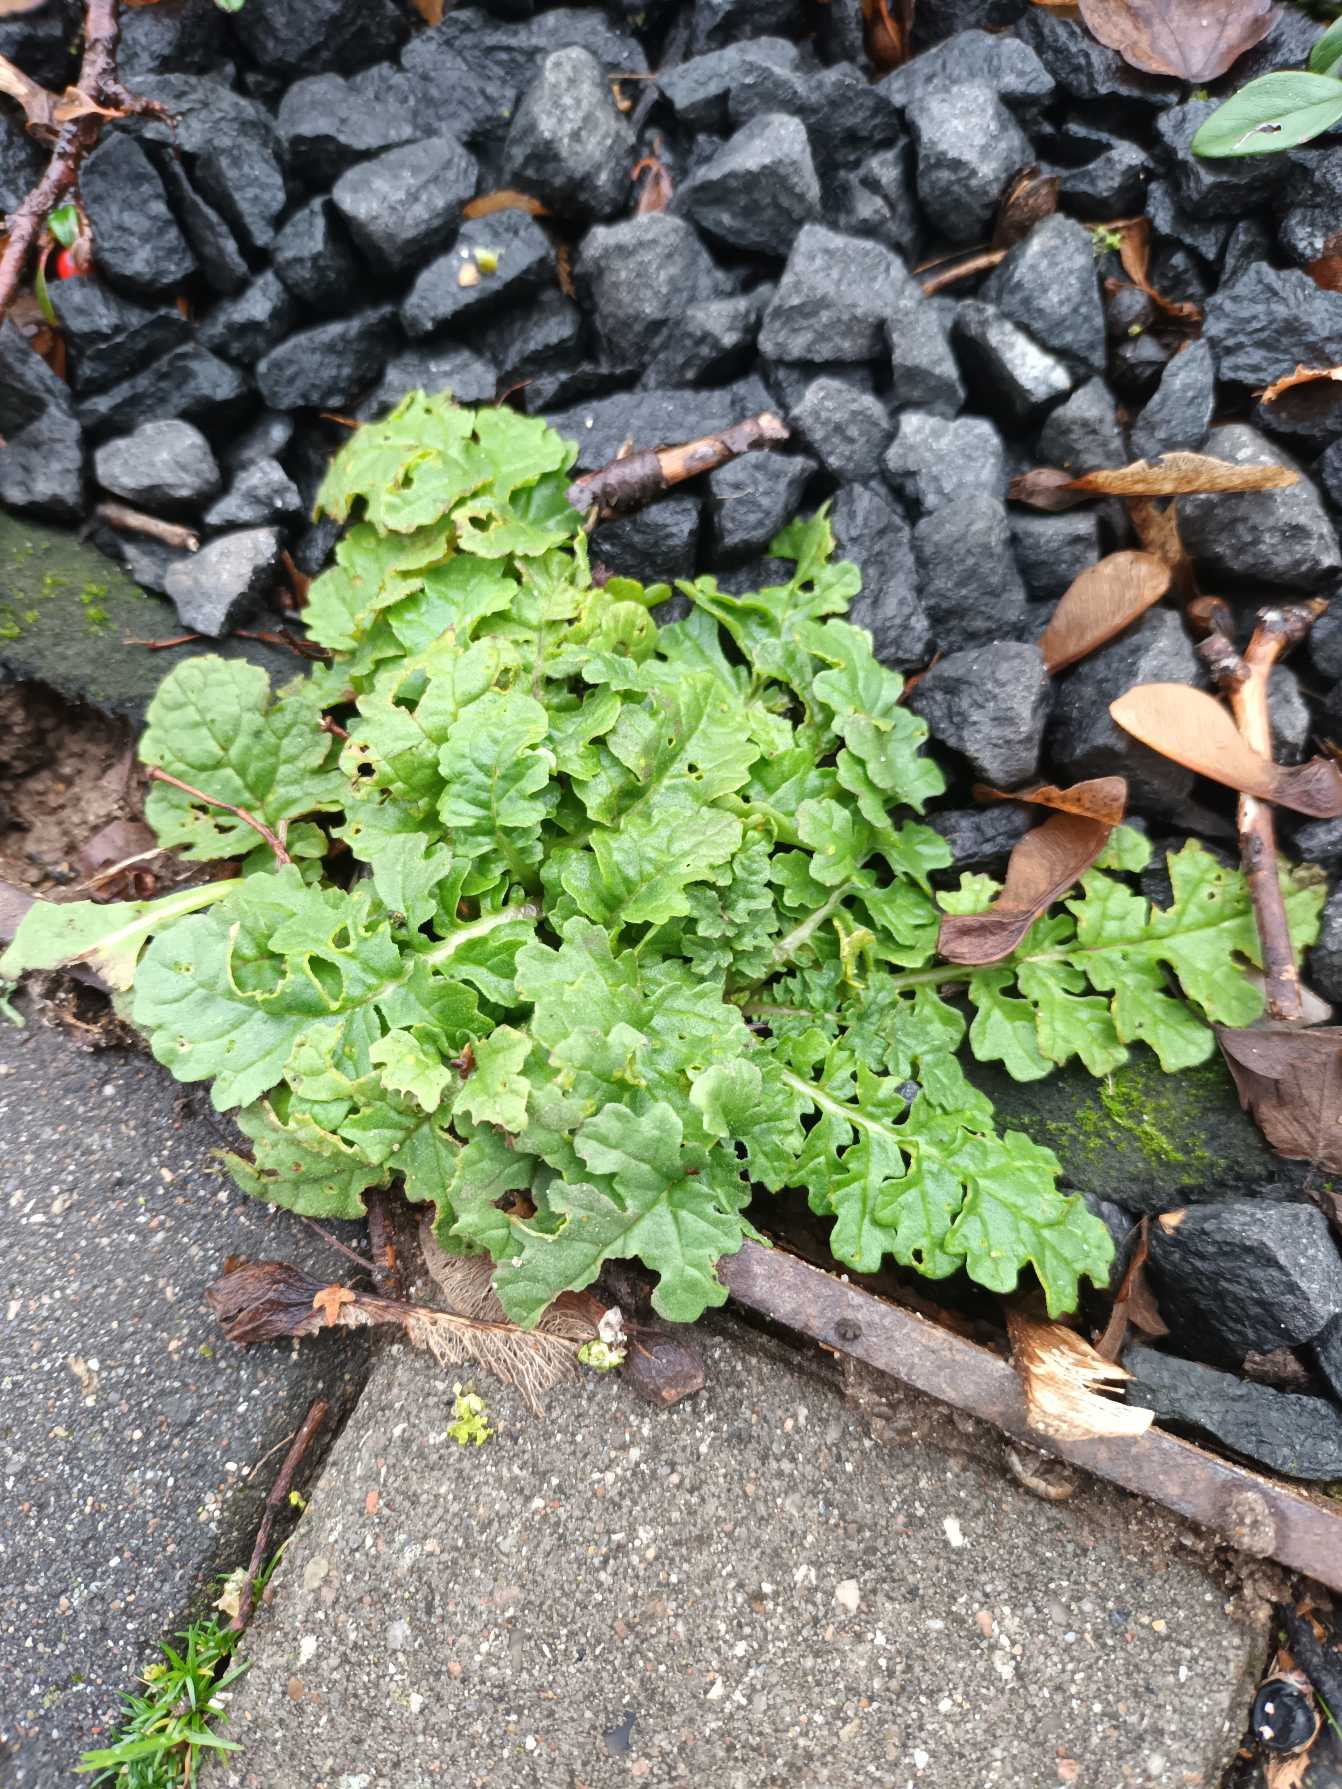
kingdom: Plantae
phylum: Tracheophyta
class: Magnoliopsida
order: Asterales
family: Asteraceae
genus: Jacobaea
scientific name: Jacobaea vulgaris
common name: Eng-brandbæger
